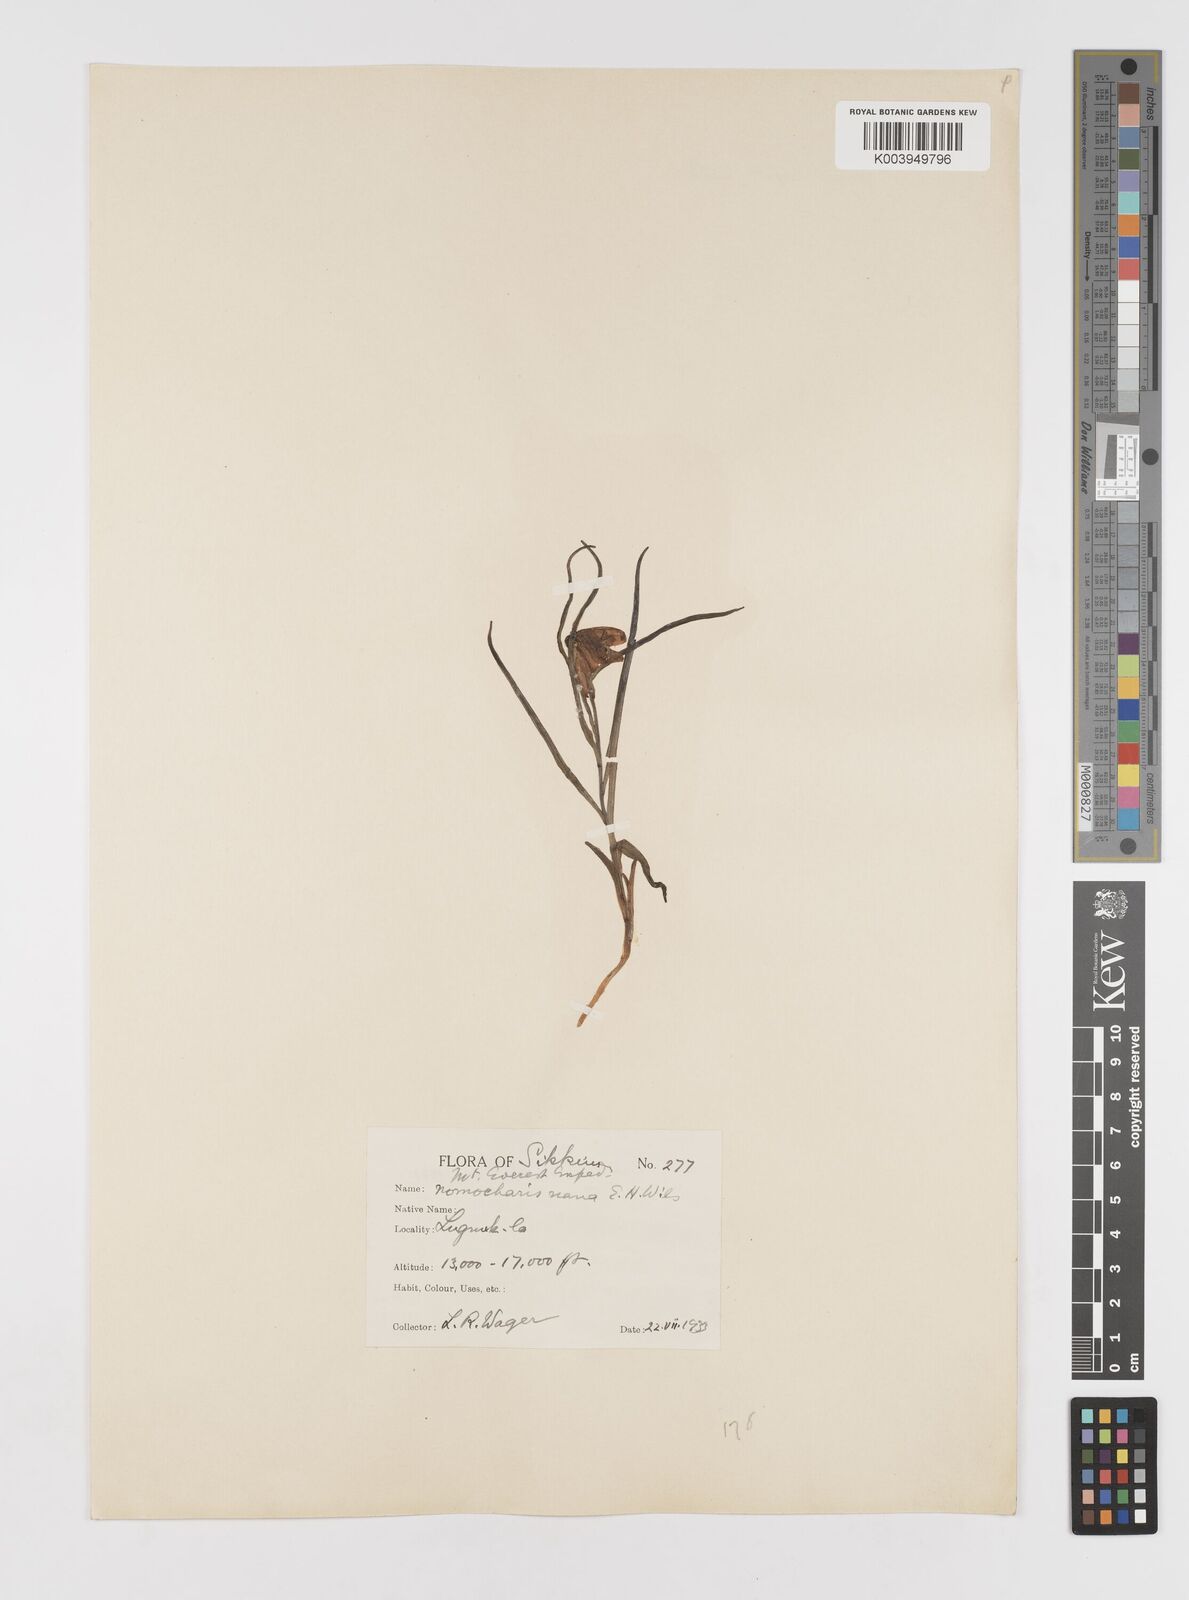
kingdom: Plantae
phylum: Tracheophyta
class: Liliopsida
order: Liliales
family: Liliaceae
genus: Lilium
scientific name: Lilium nanum
